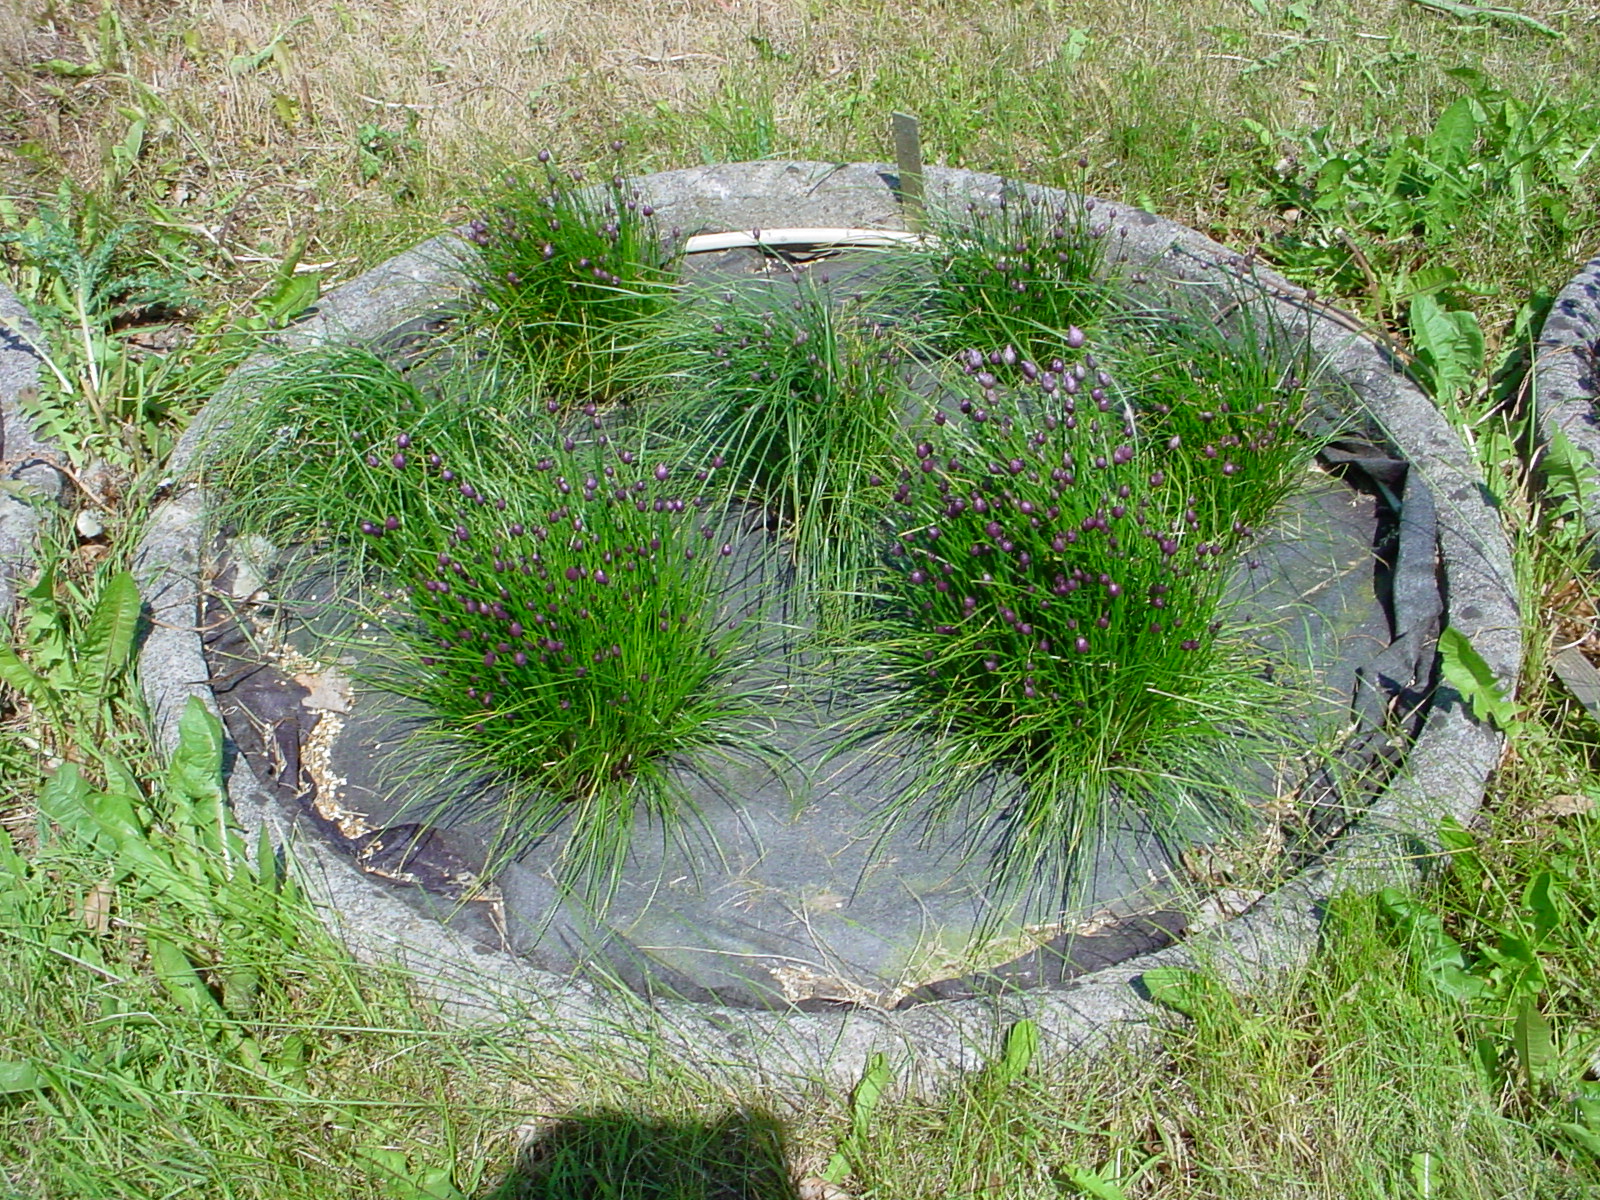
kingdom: Plantae
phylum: Tracheophyta
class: Liliopsida
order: Asparagales
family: Amaryllidaceae
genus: Allium
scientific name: Allium schoenoprasum
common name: Chives
